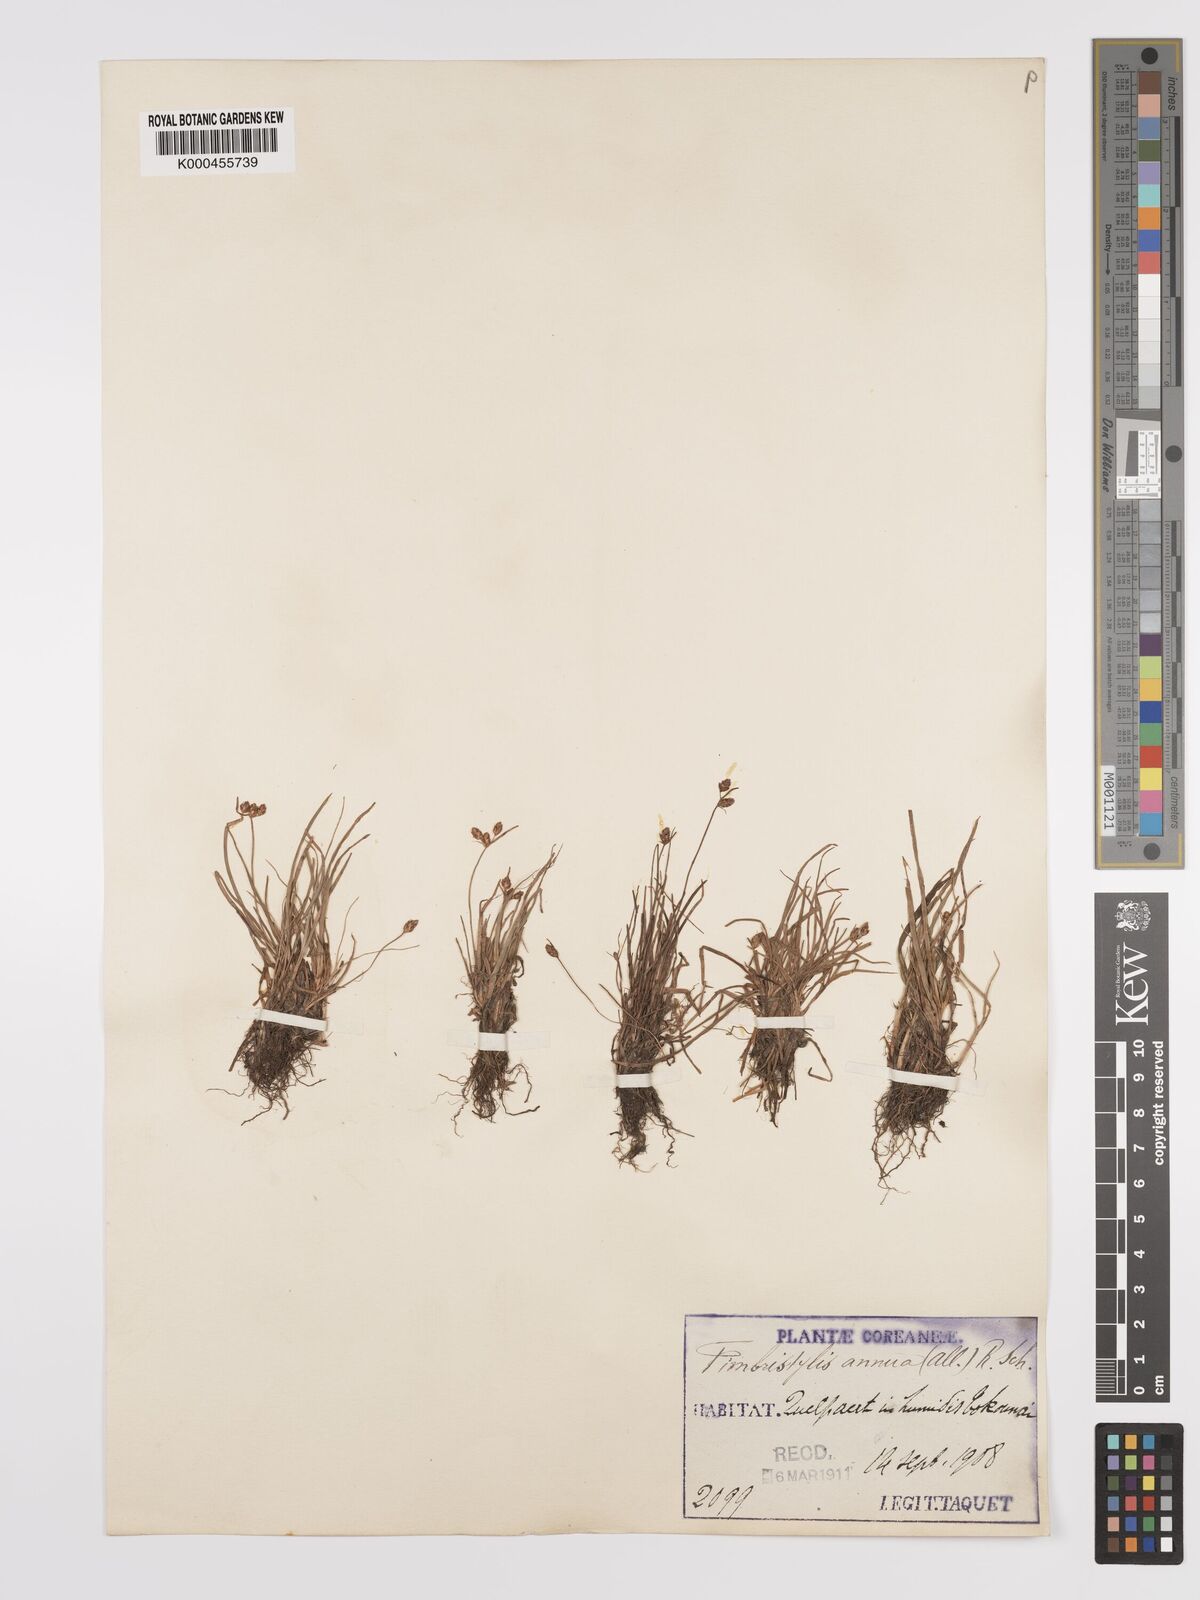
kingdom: Plantae
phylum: Tracheophyta
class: Liliopsida
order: Poales
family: Cyperaceae
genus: Fimbristylis
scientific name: Fimbristylis dichotoma
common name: Forked fimbry
